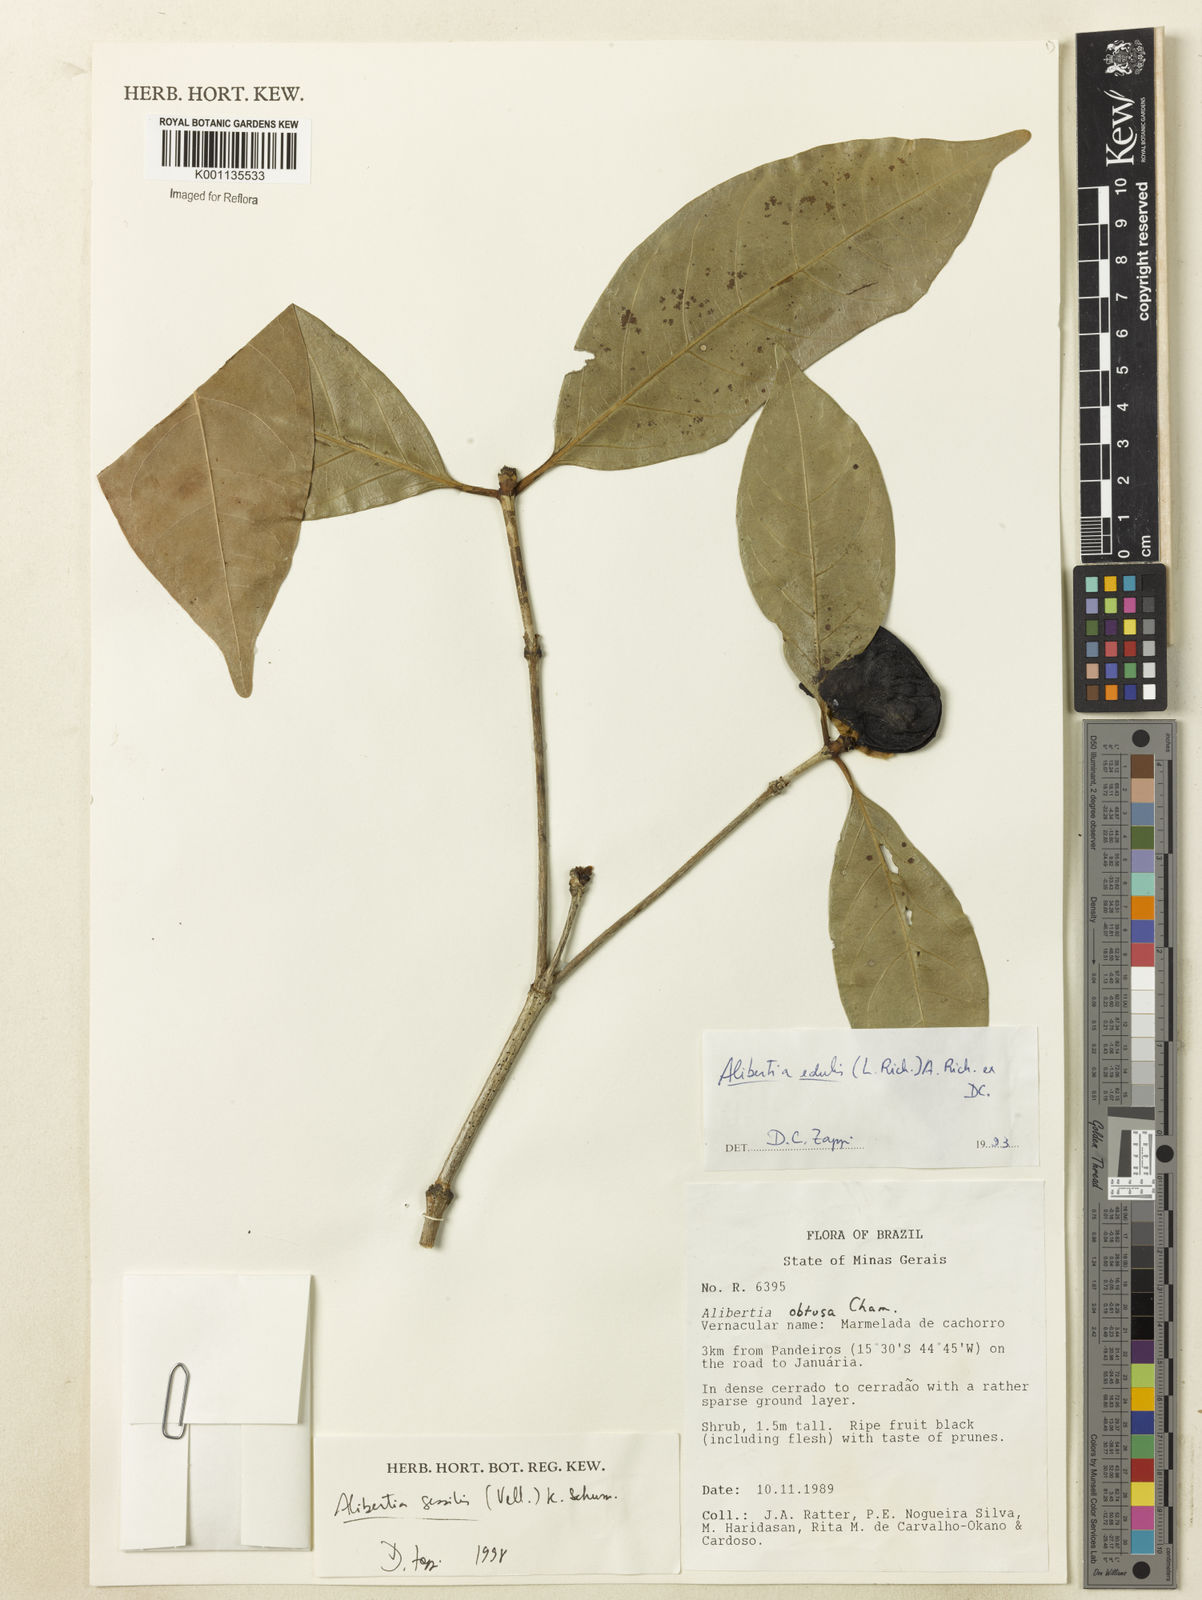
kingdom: Plantae
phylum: Tracheophyta
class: Magnoliopsida
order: Gentianales
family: Rubiaceae
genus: Cordiera
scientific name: Cordiera sessilis
